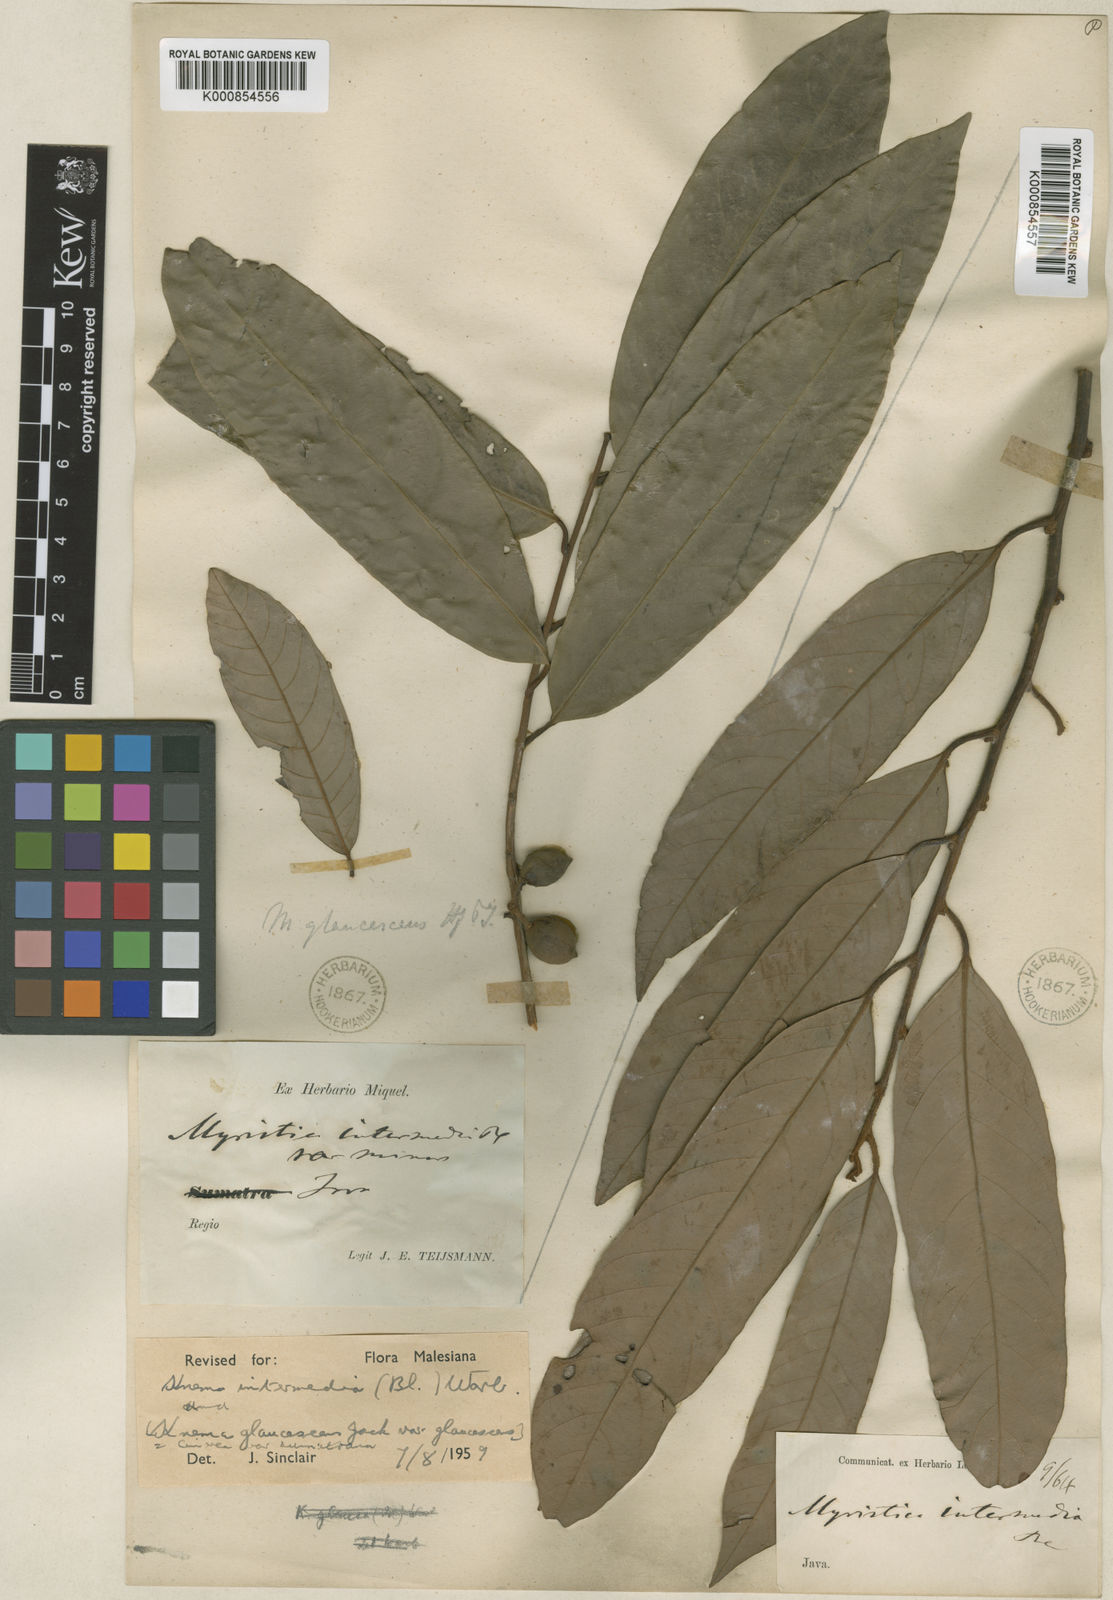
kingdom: Plantae
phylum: Tracheophyta
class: Magnoliopsida
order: Magnoliales
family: Myristicaceae
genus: Knema
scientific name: Knema intermedia
